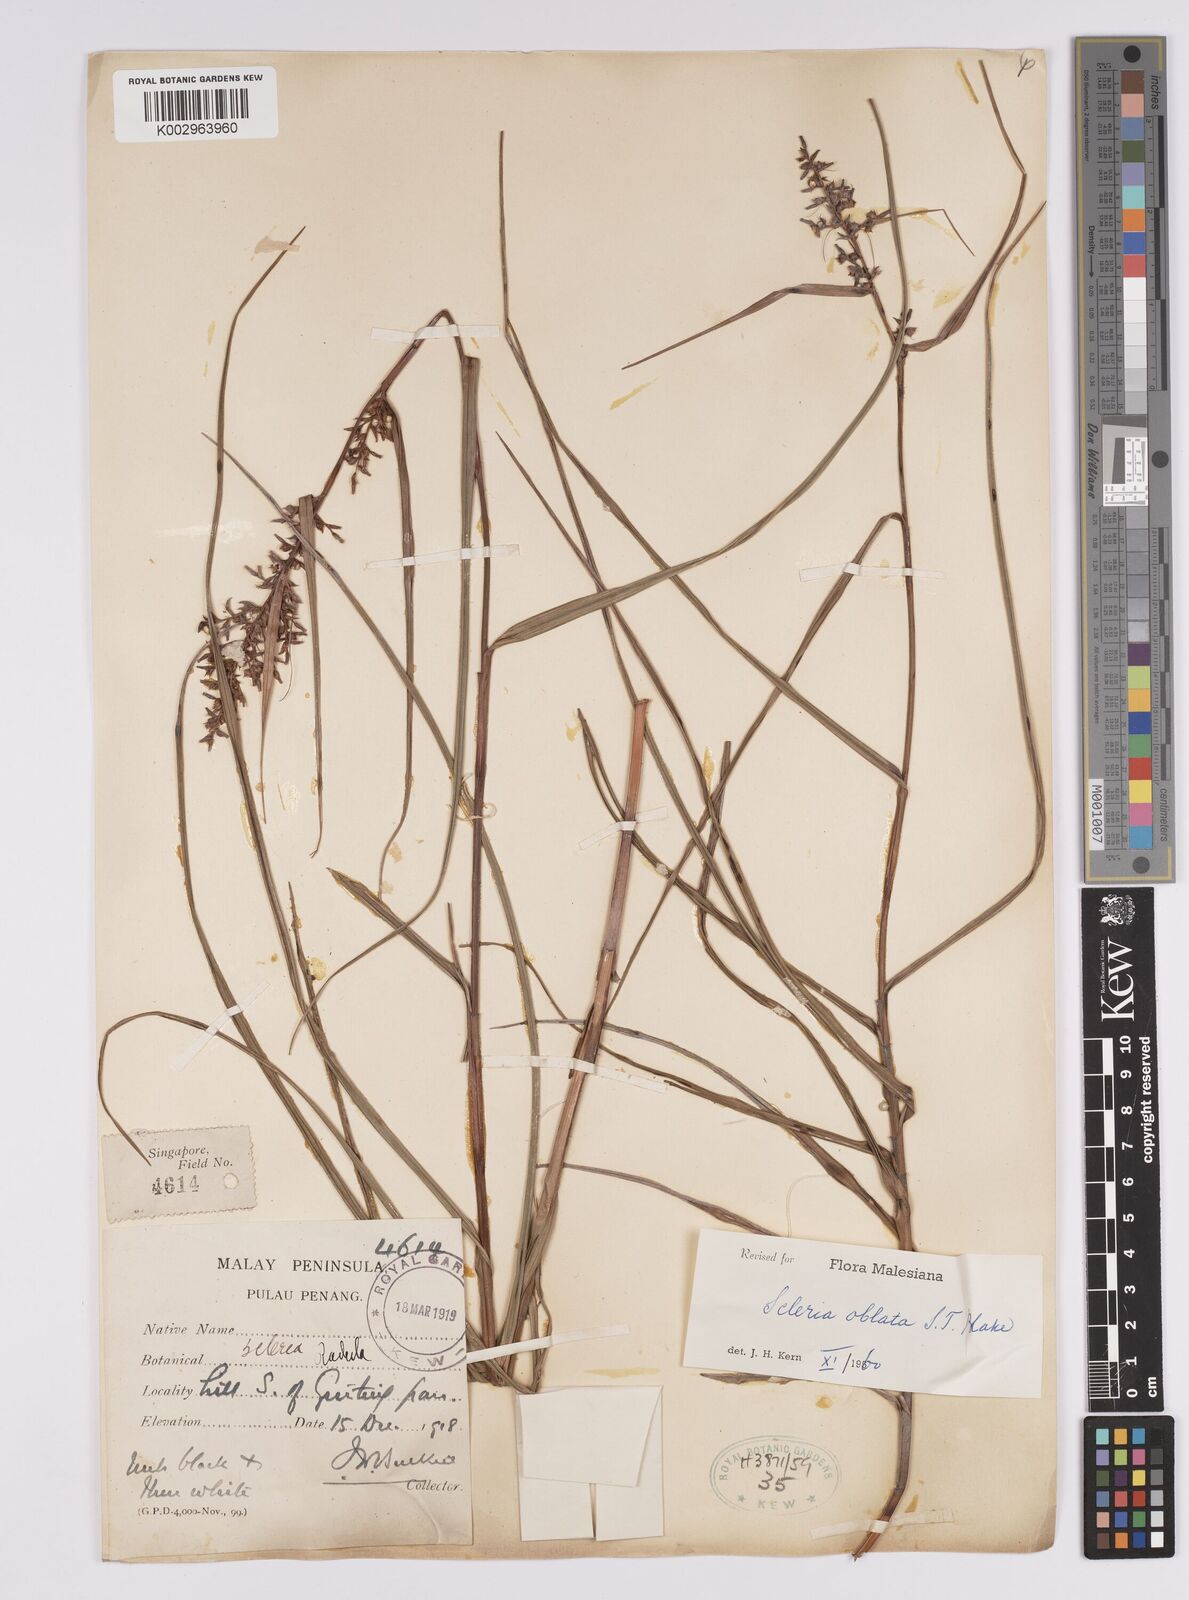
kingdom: Plantae
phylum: Tracheophyta
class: Liliopsida
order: Poales
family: Cyperaceae
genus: Scleria
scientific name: Scleria oblata
